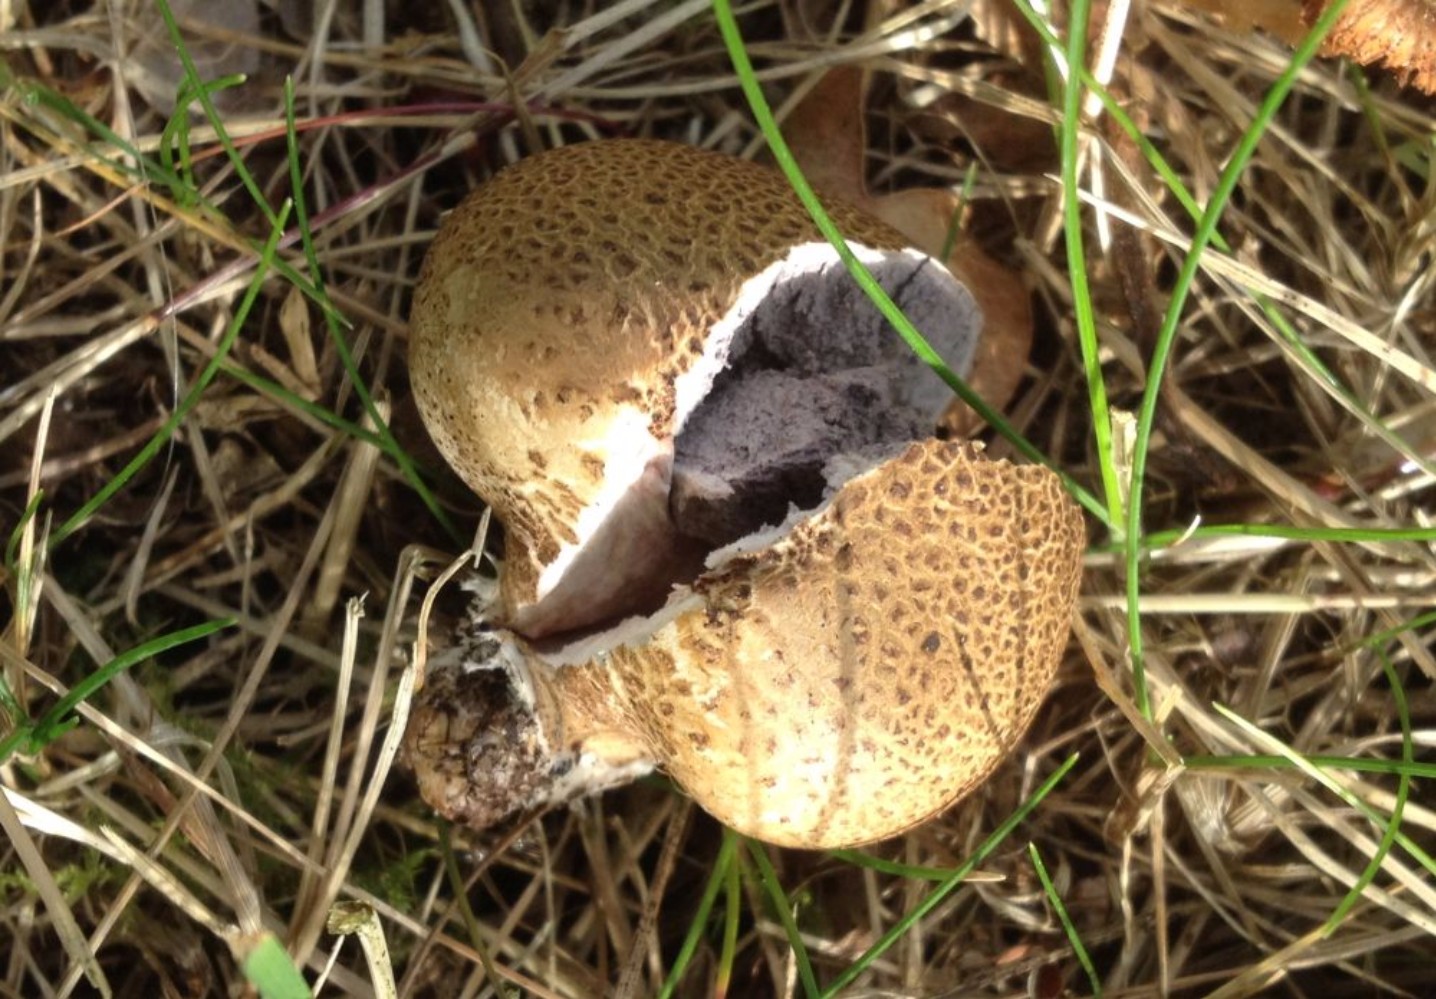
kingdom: Fungi
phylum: Basidiomycota
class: Agaricomycetes
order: Boletales
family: Sclerodermataceae
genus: Scleroderma
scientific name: Scleroderma citrinum
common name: almindelig bruskbold
